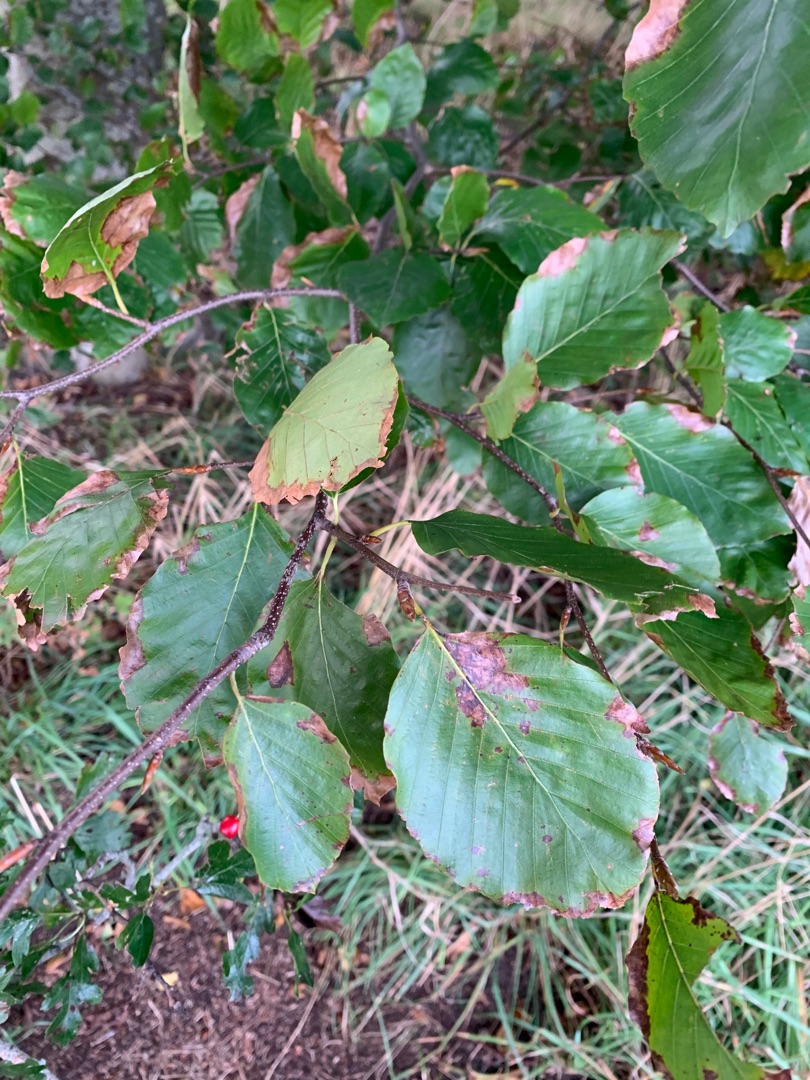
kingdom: Plantae
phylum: Tracheophyta
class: Magnoliopsida
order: Fagales
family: Fagaceae
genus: Fagus
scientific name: Fagus sylvatica
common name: Bøg
